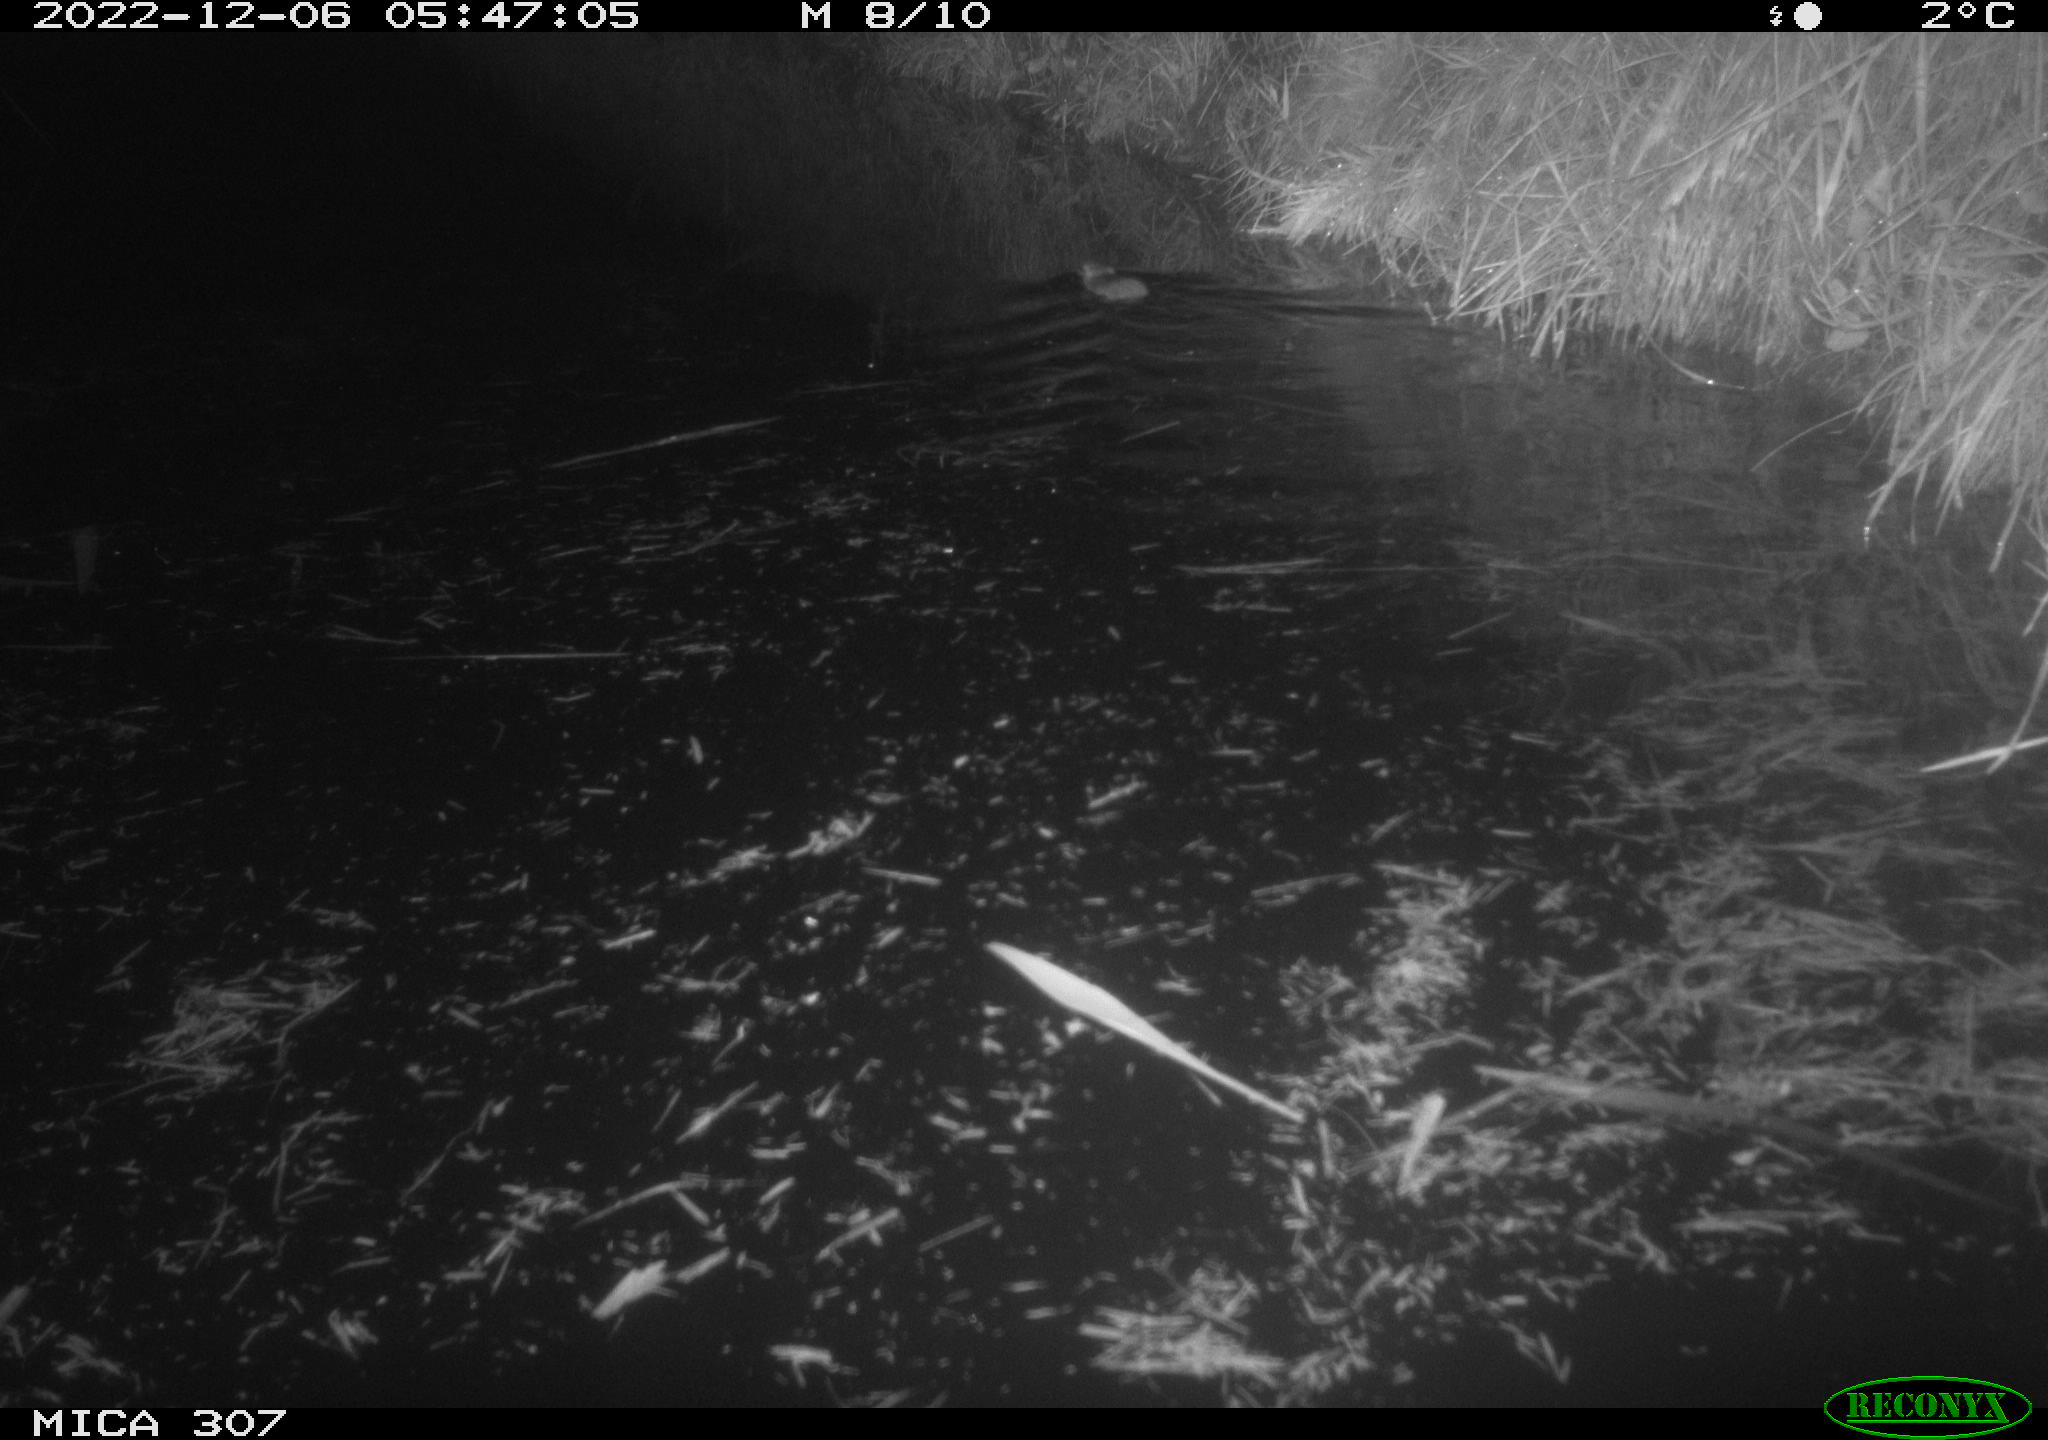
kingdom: Animalia
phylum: Chordata
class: Mammalia
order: Rodentia
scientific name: Rodentia
